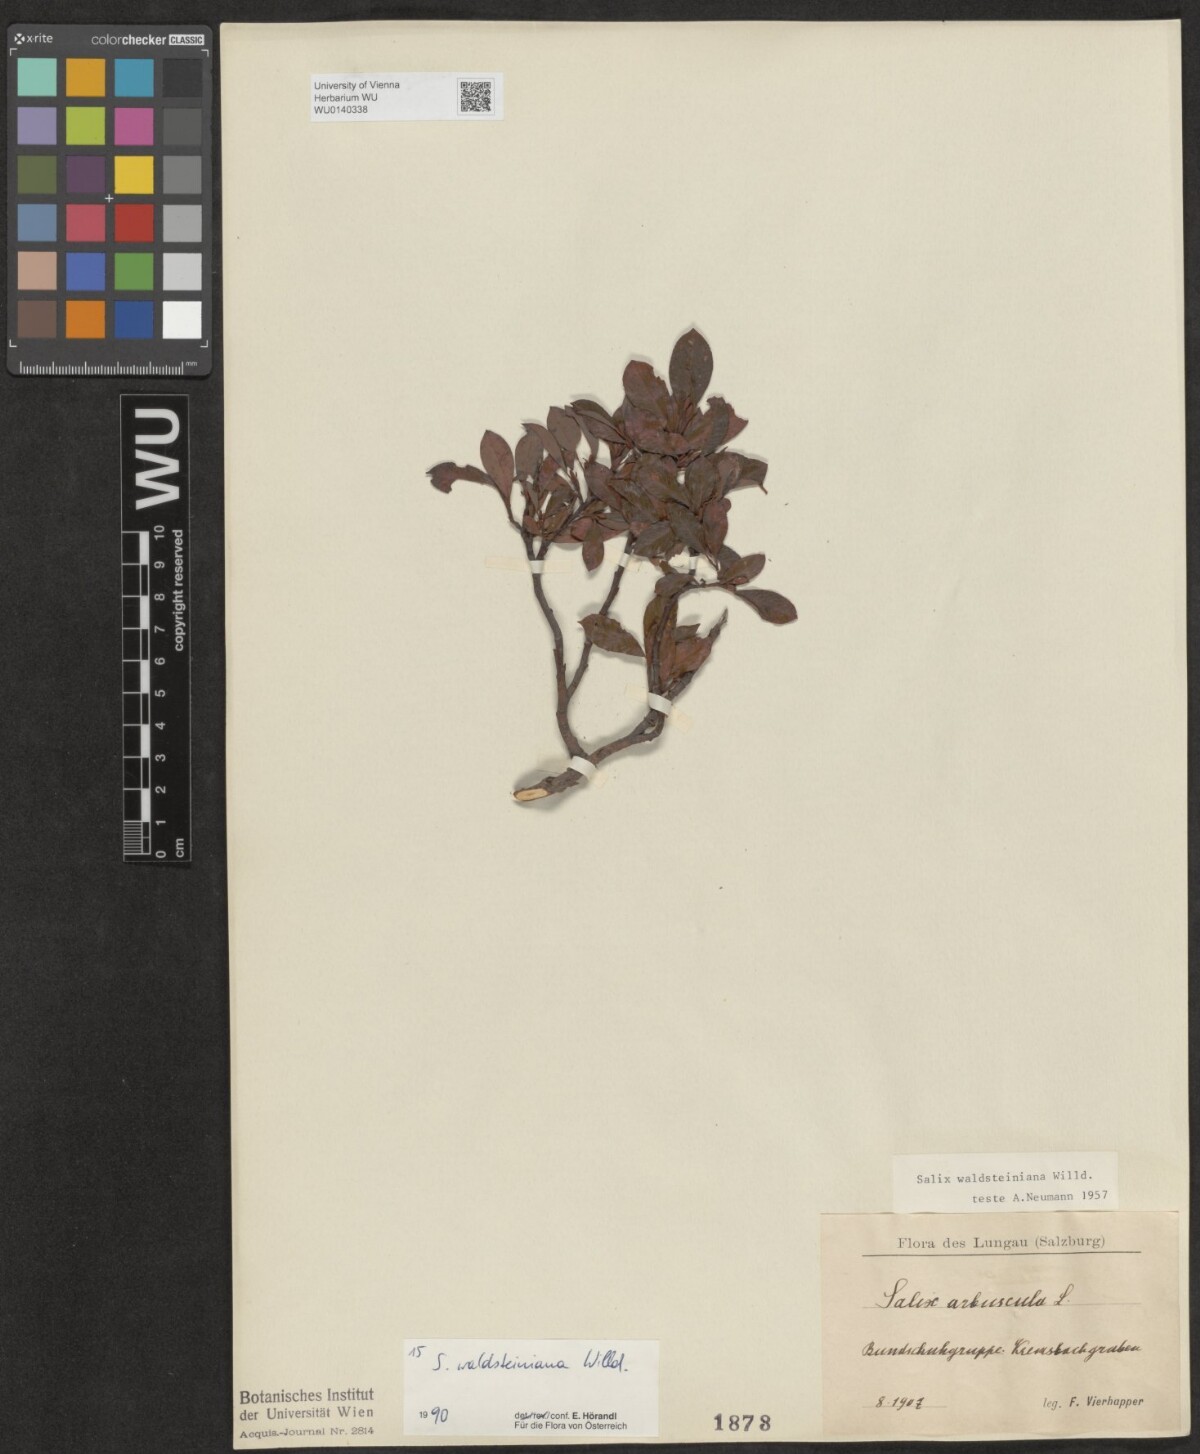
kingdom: Plantae
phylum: Tracheophyta
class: Magnoliopsida
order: Malpighiales
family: Salicaceae
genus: Salix
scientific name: Salix waldsteiniana
